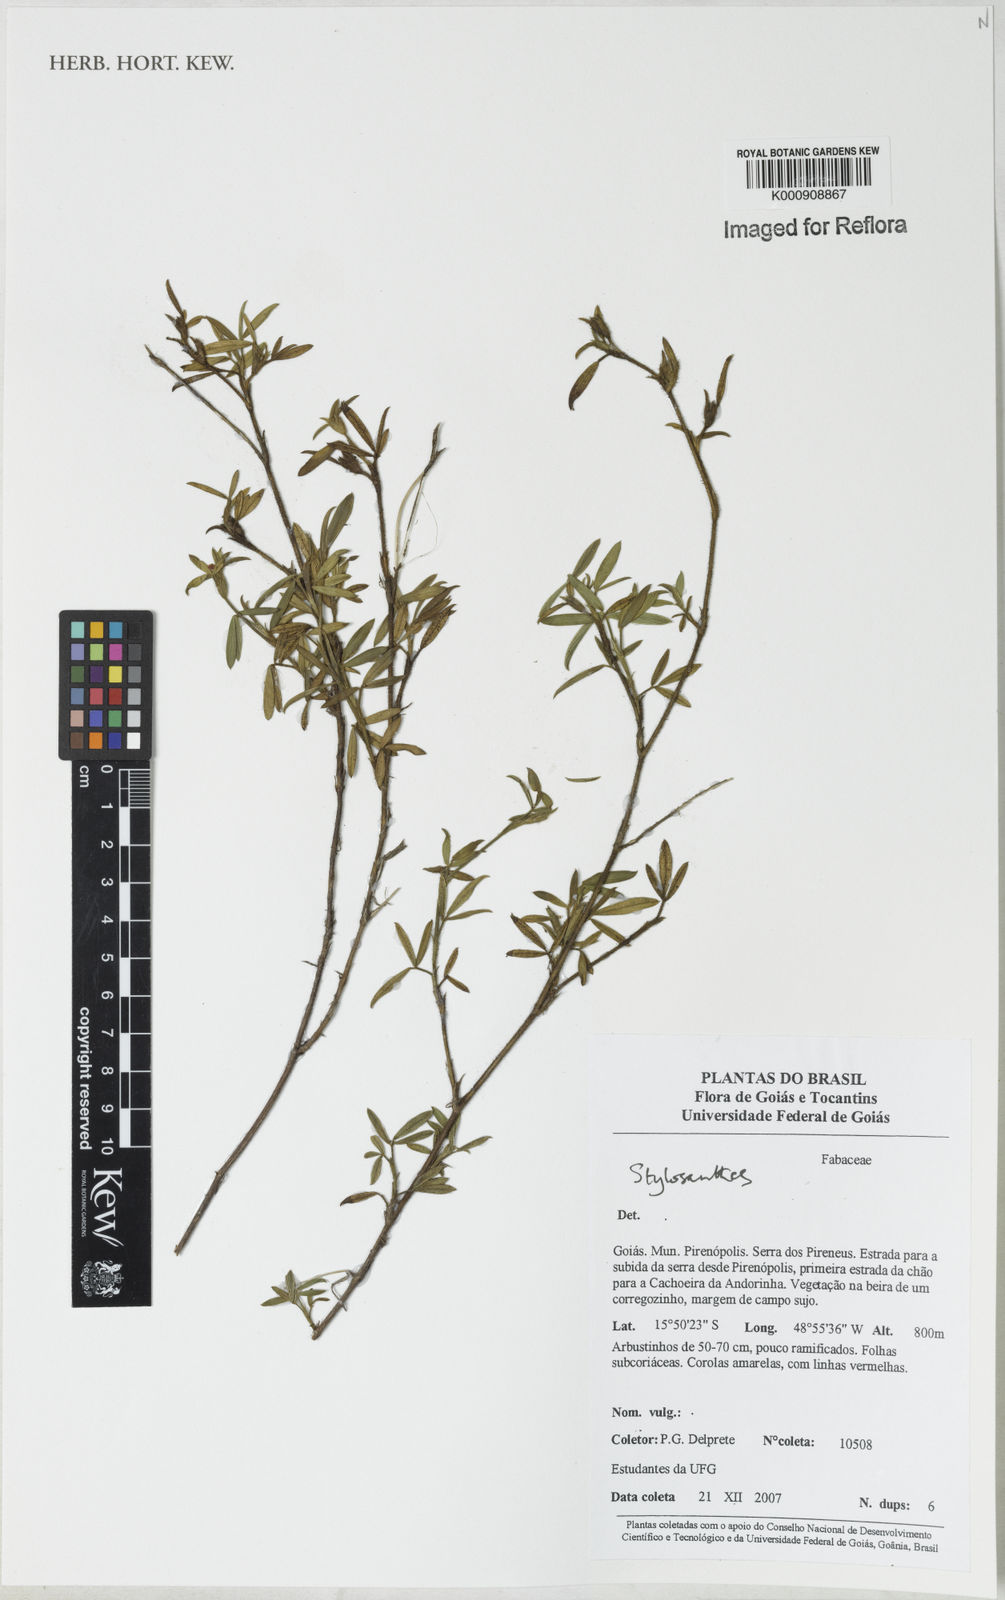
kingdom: Plantae
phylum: Tracheophyta
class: Magnoliopsida
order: Fabales
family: Fabaceae
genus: Stylosanthes
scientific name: Stylosanthes
